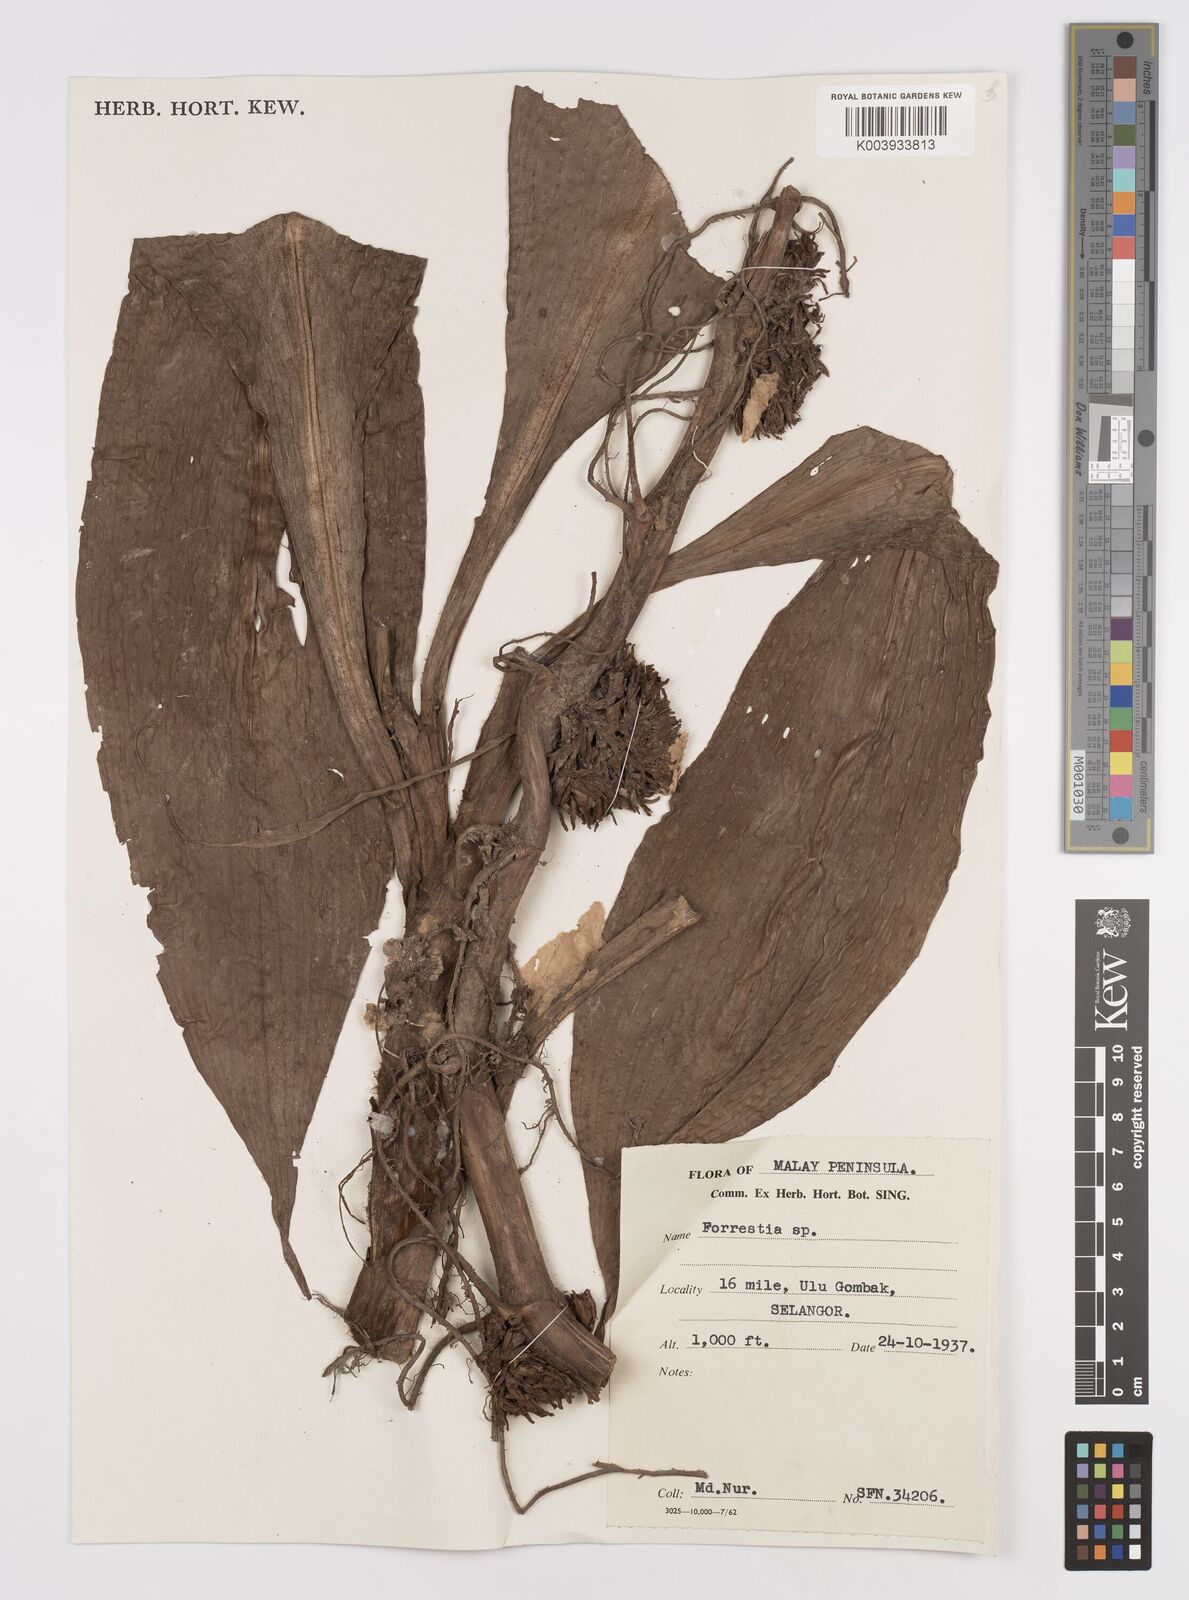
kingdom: Plantae
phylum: Tracheophyta
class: Liliopsida
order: Commelinales
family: Commelinaceae
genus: Amischotolype
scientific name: Amischotolype
